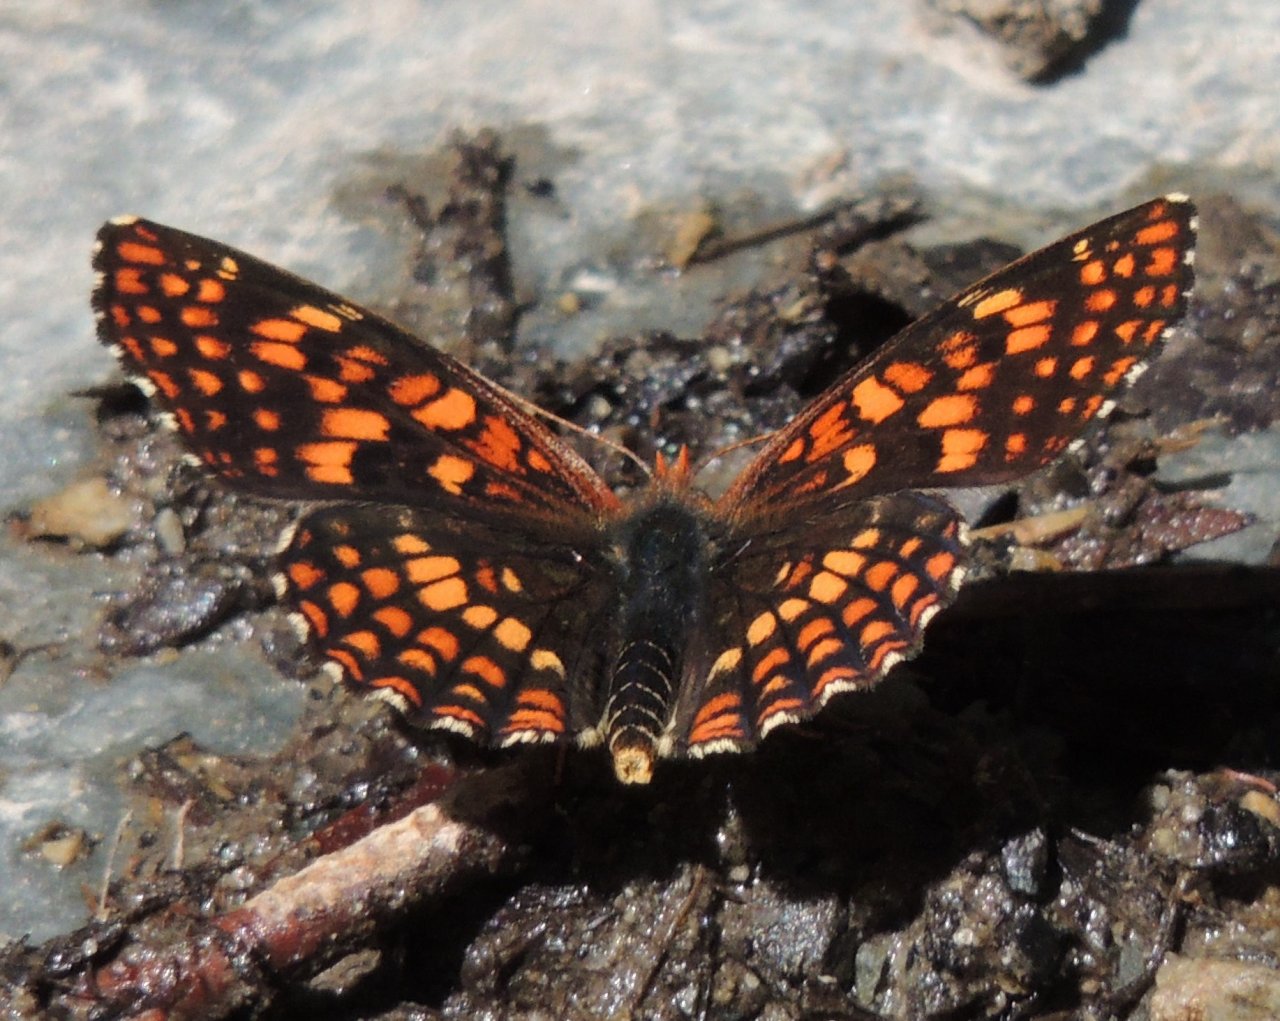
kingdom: Animalia
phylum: Arthropoda
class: Insecta
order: Lepidoptera
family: Nymphalidae
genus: Chlosyne
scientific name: Chlosyne palla
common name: Northern Checkerspot
